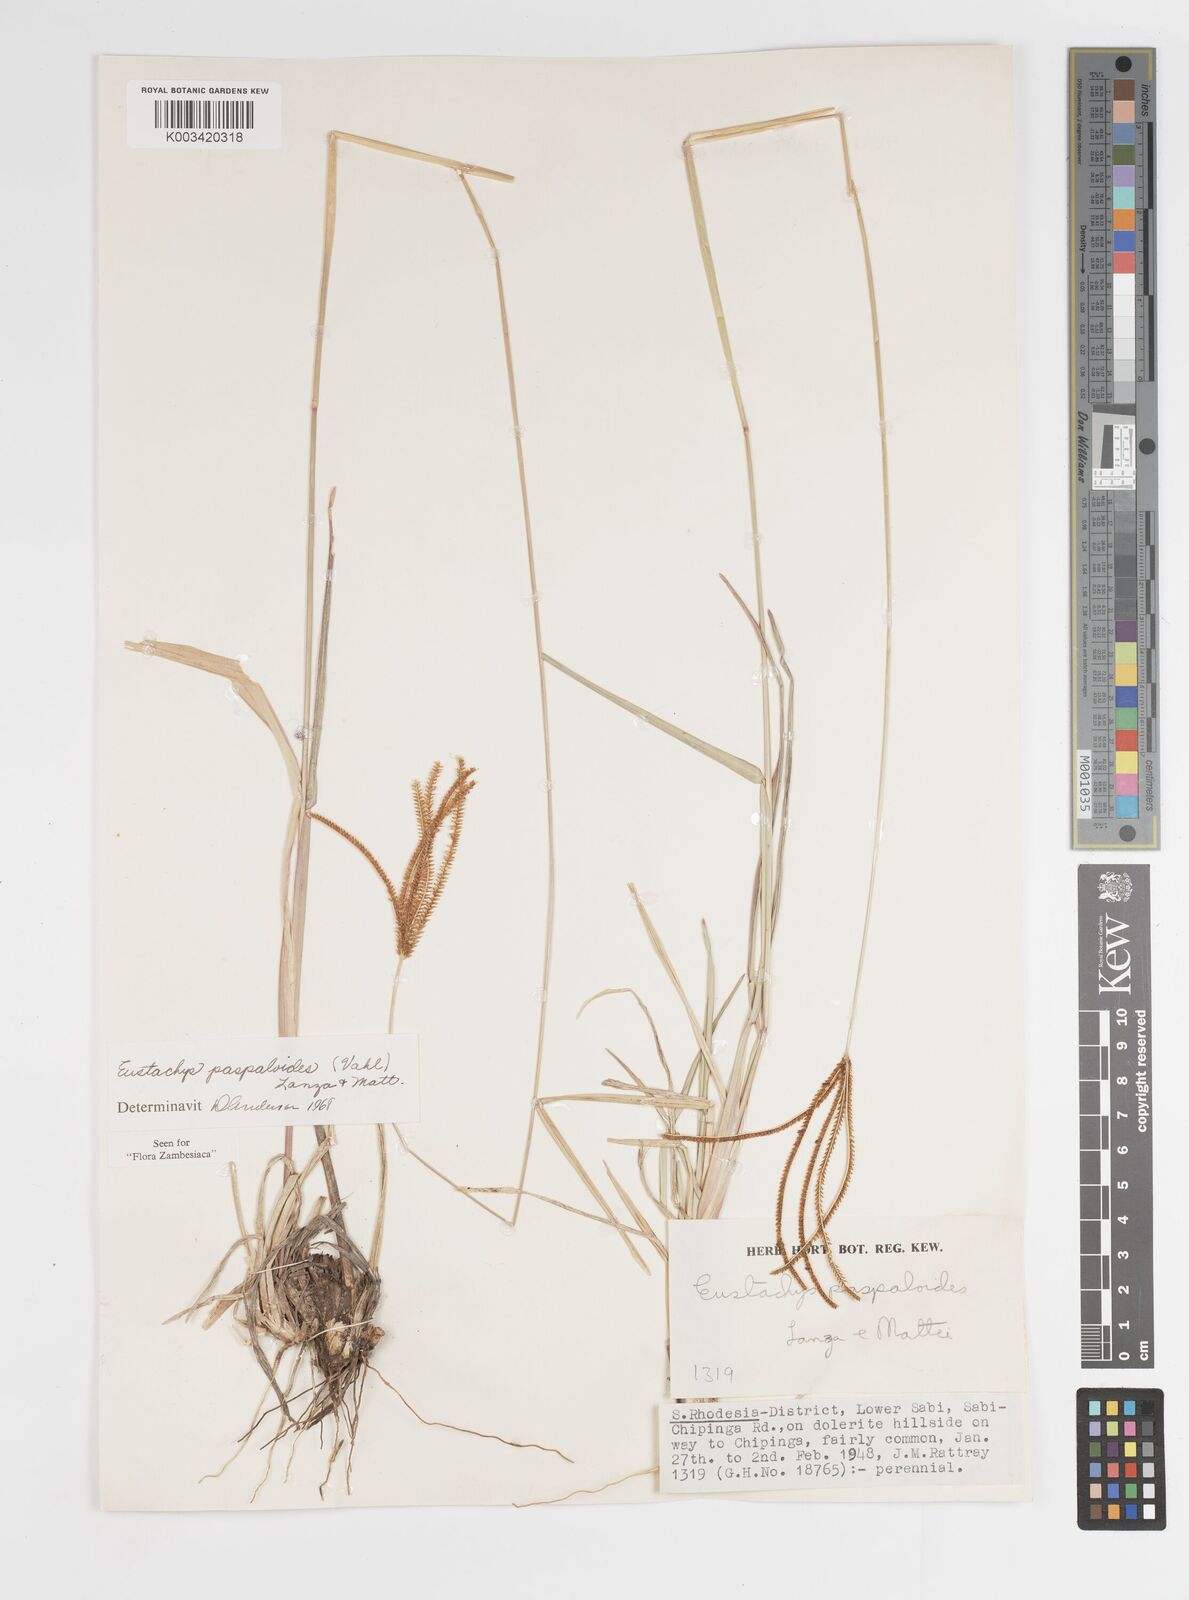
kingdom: Plantae
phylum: Tracheophyta
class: Liliopsida
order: Poales
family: Poaceae
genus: Eustachys
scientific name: Eustachys paspaloides
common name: Caribbean fingergrass
